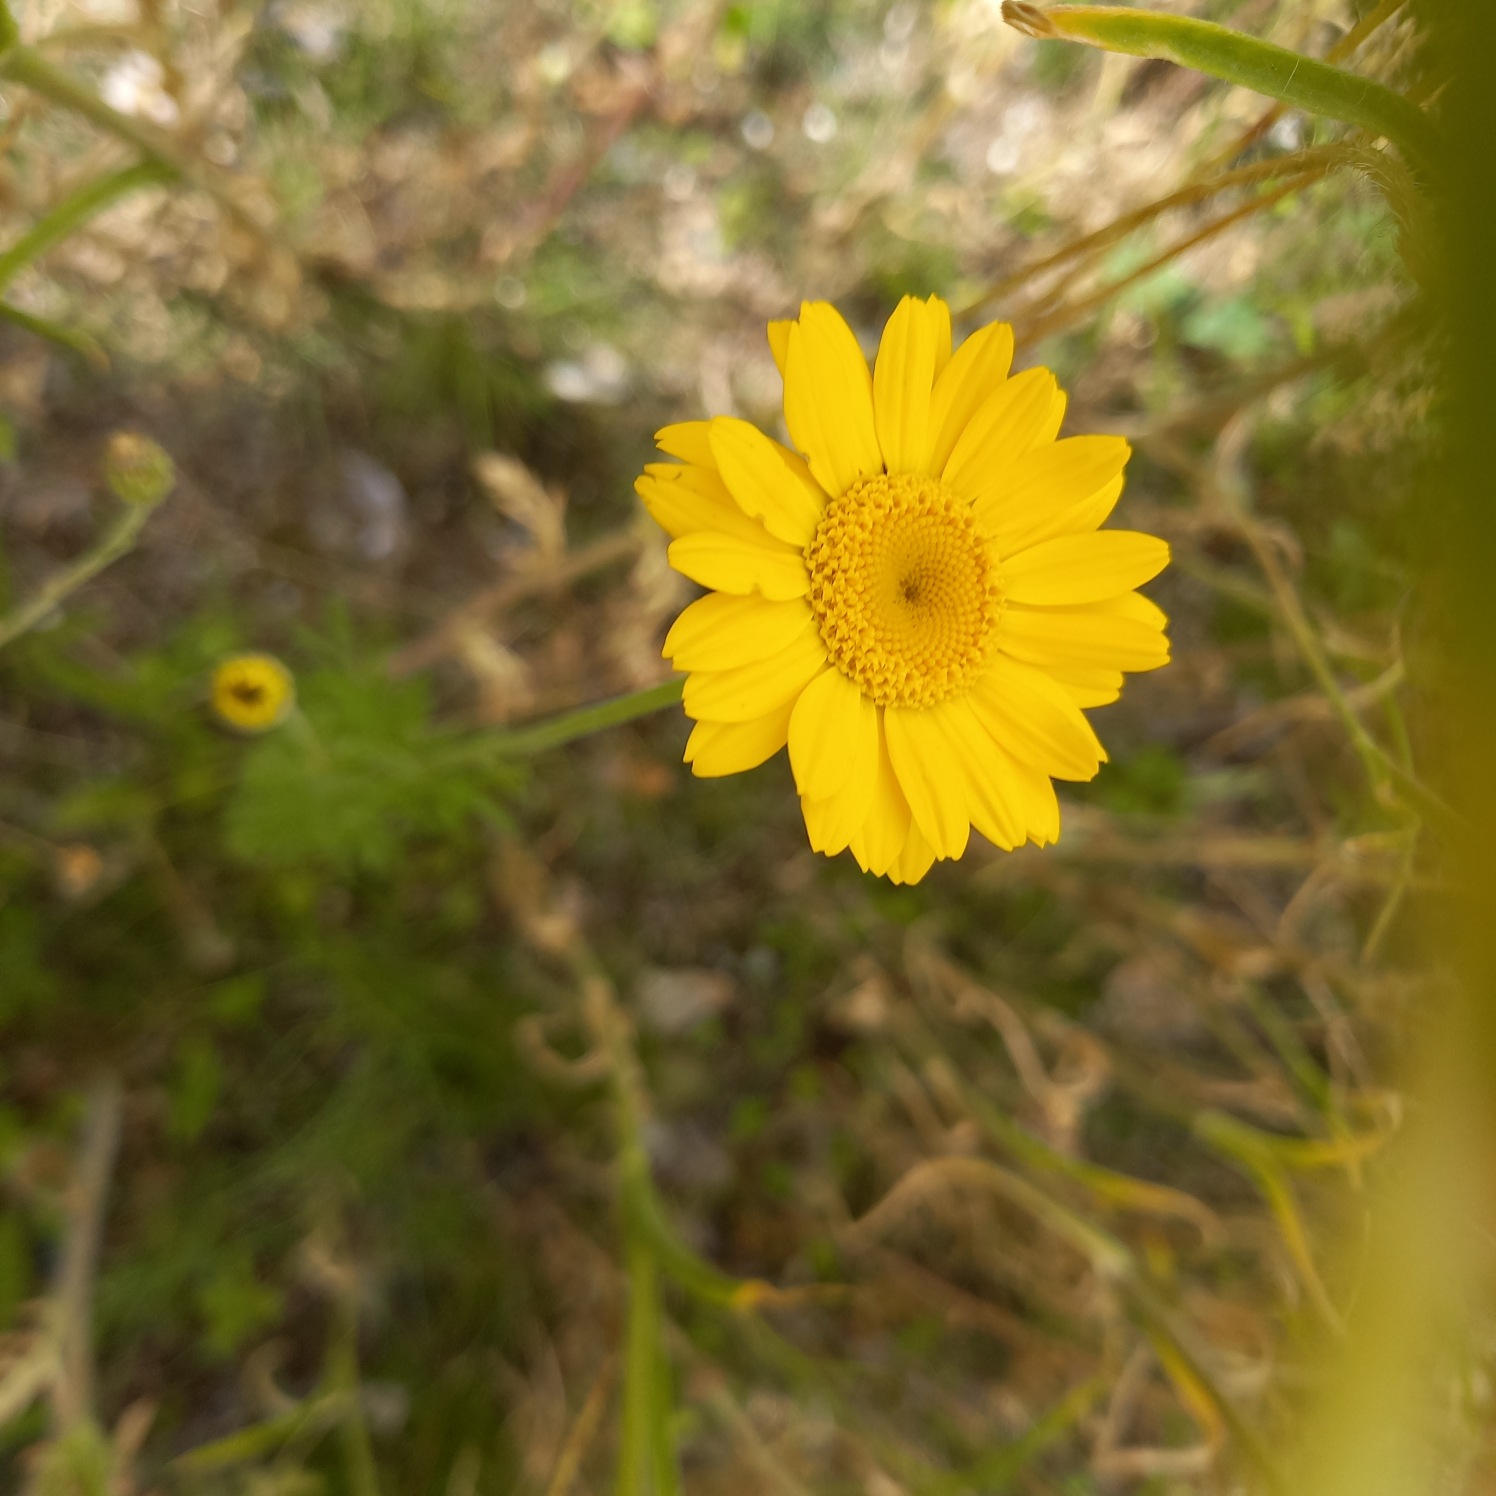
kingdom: Plantae
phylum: Tracheophyta
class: Magnoliopsida
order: Asterales
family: Asteraceae
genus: Cota
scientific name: Cota tinctoria
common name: Farve-gåseurt
